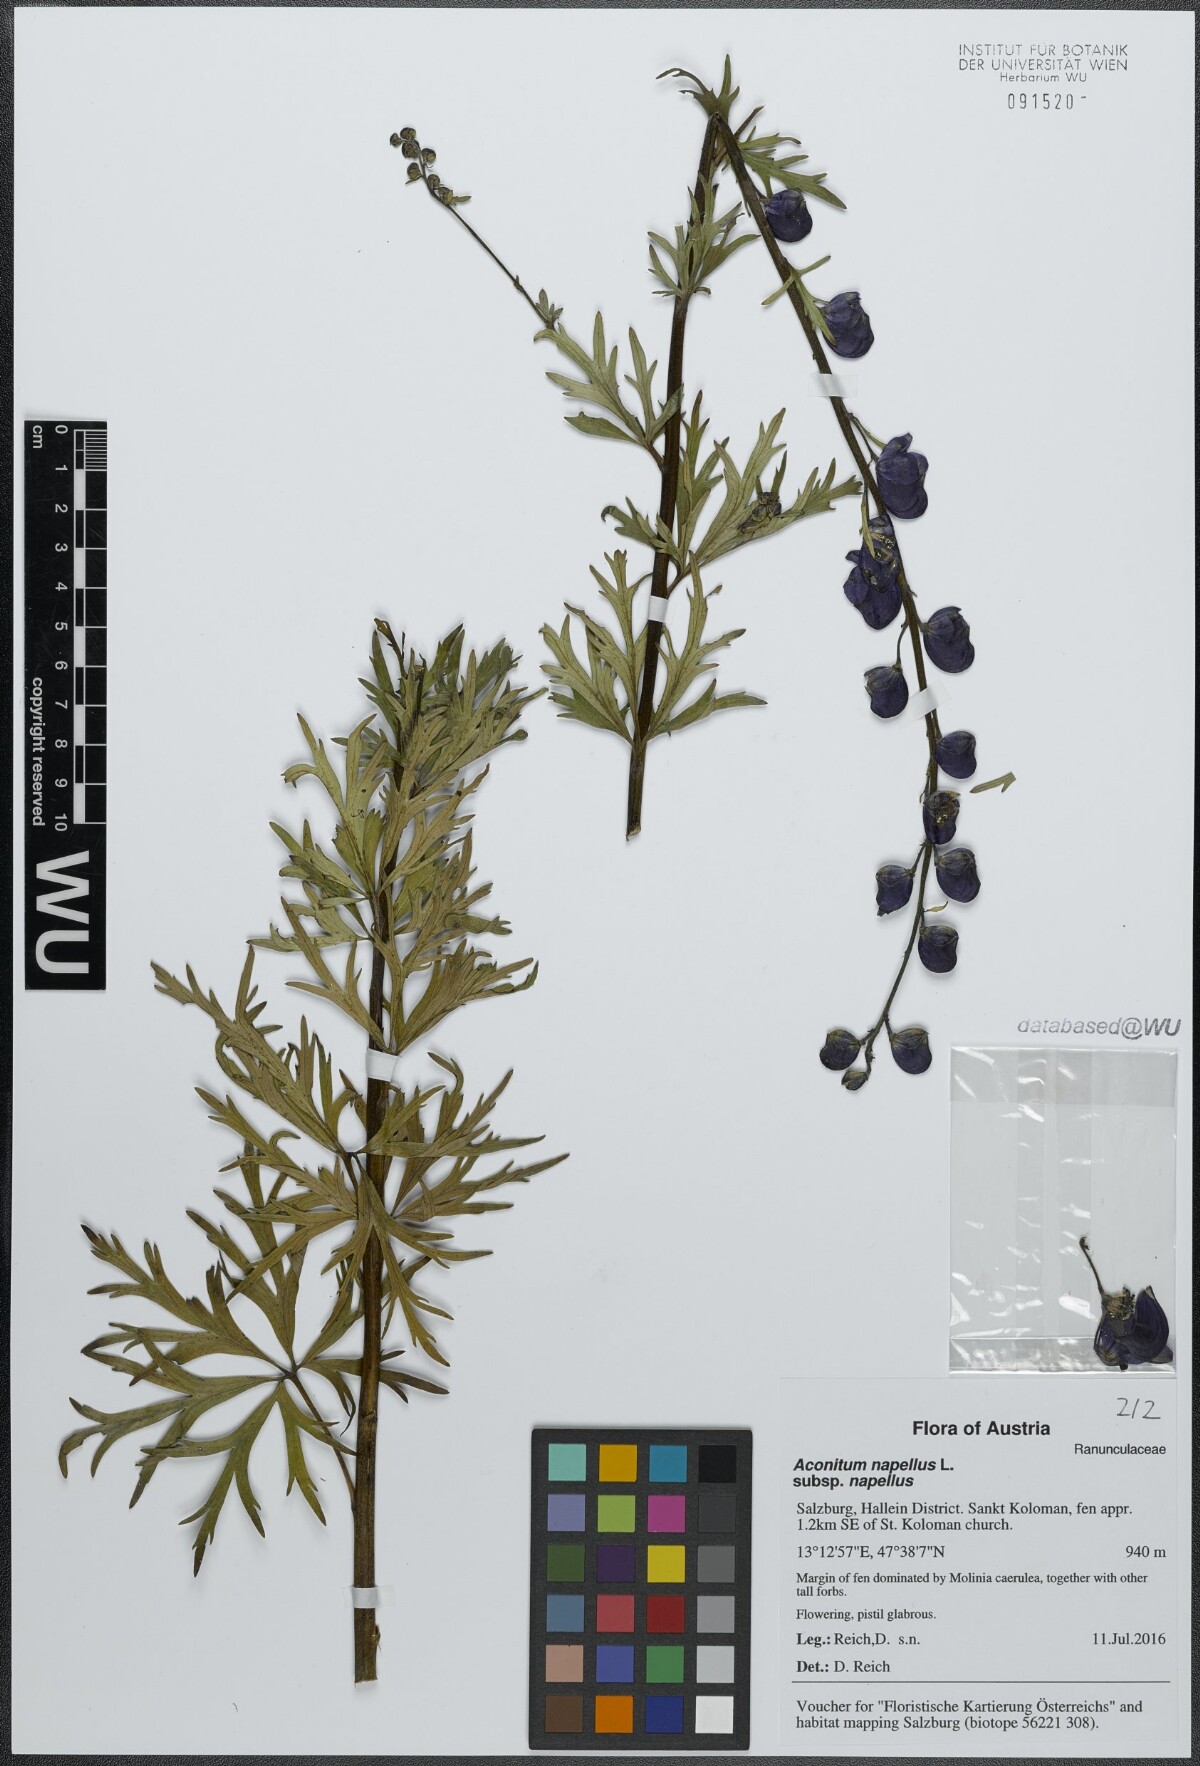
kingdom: Plantae
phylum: Tracheophyta
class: Magnoliopsida
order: Ranunculales
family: Ranunculaceae
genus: Aconitum
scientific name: Aconitum napellus
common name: Garden monkshood
